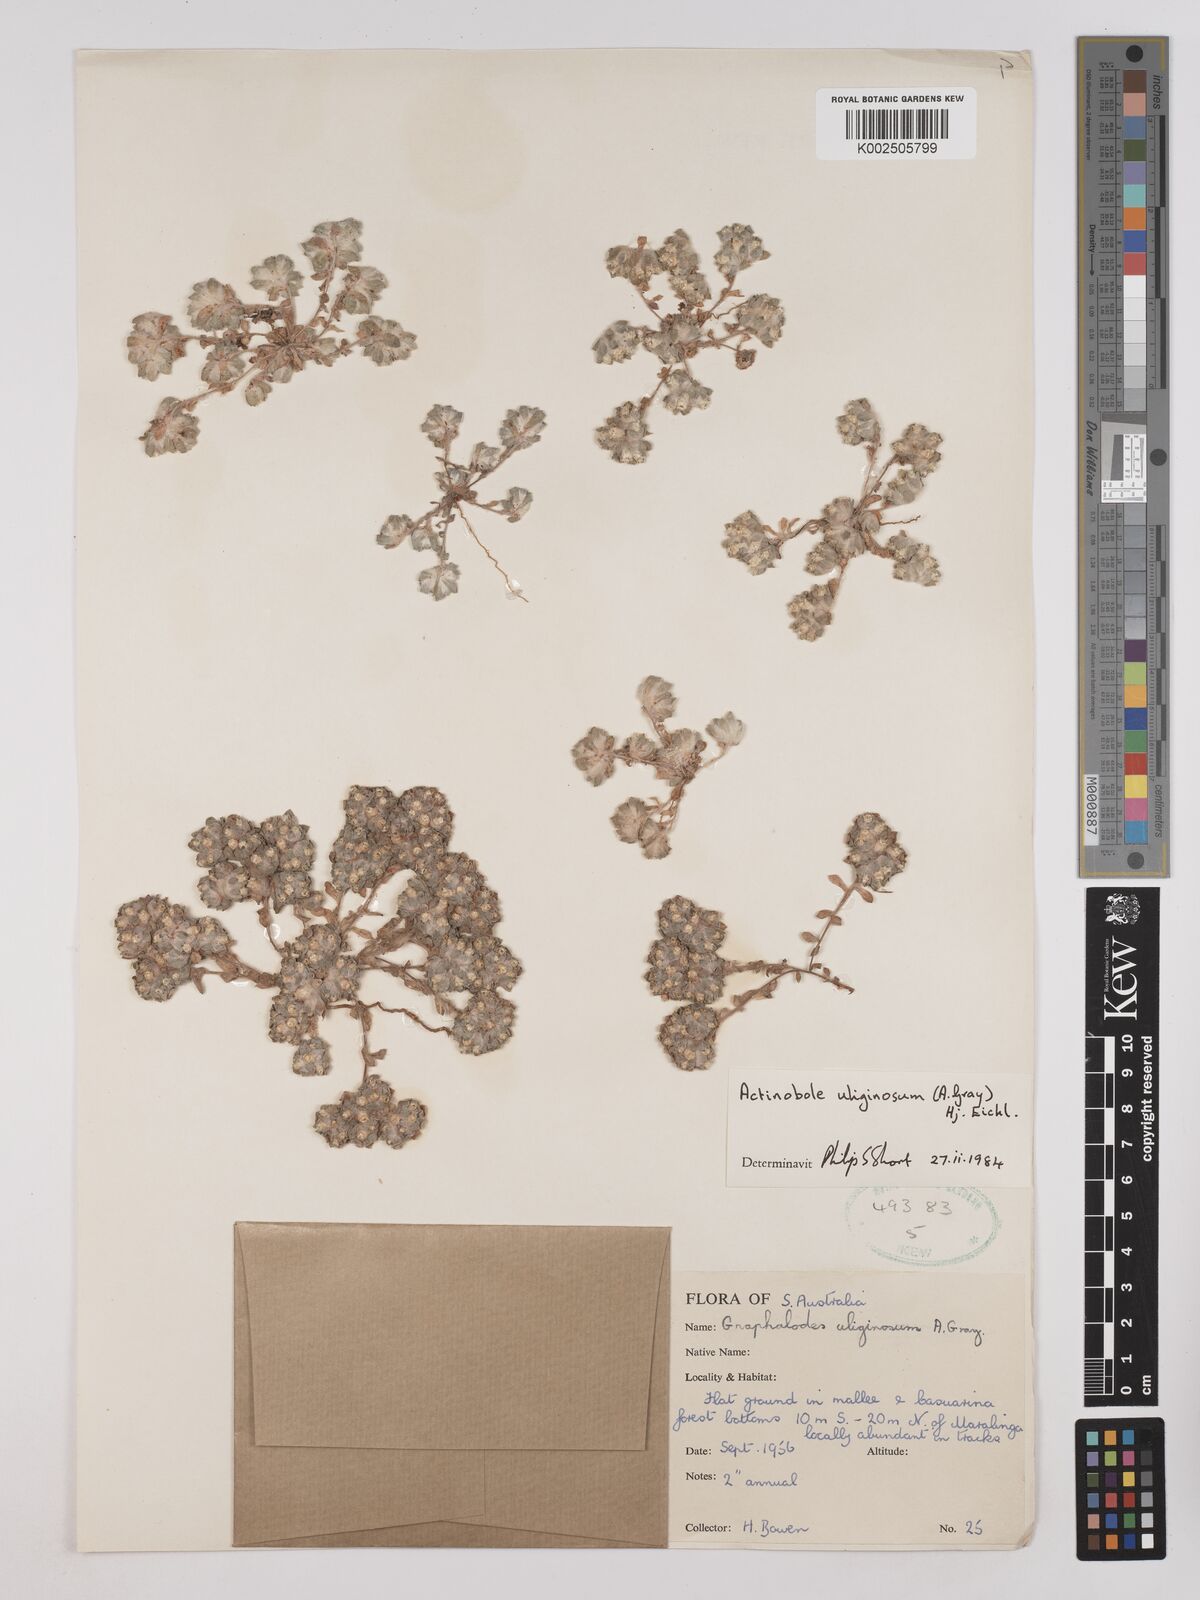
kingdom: Plantae
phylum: Tracheophyta
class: Magnoliopsida
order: Asterales
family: Asteraceae
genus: Actinobole
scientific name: Actinobole uliginosum
